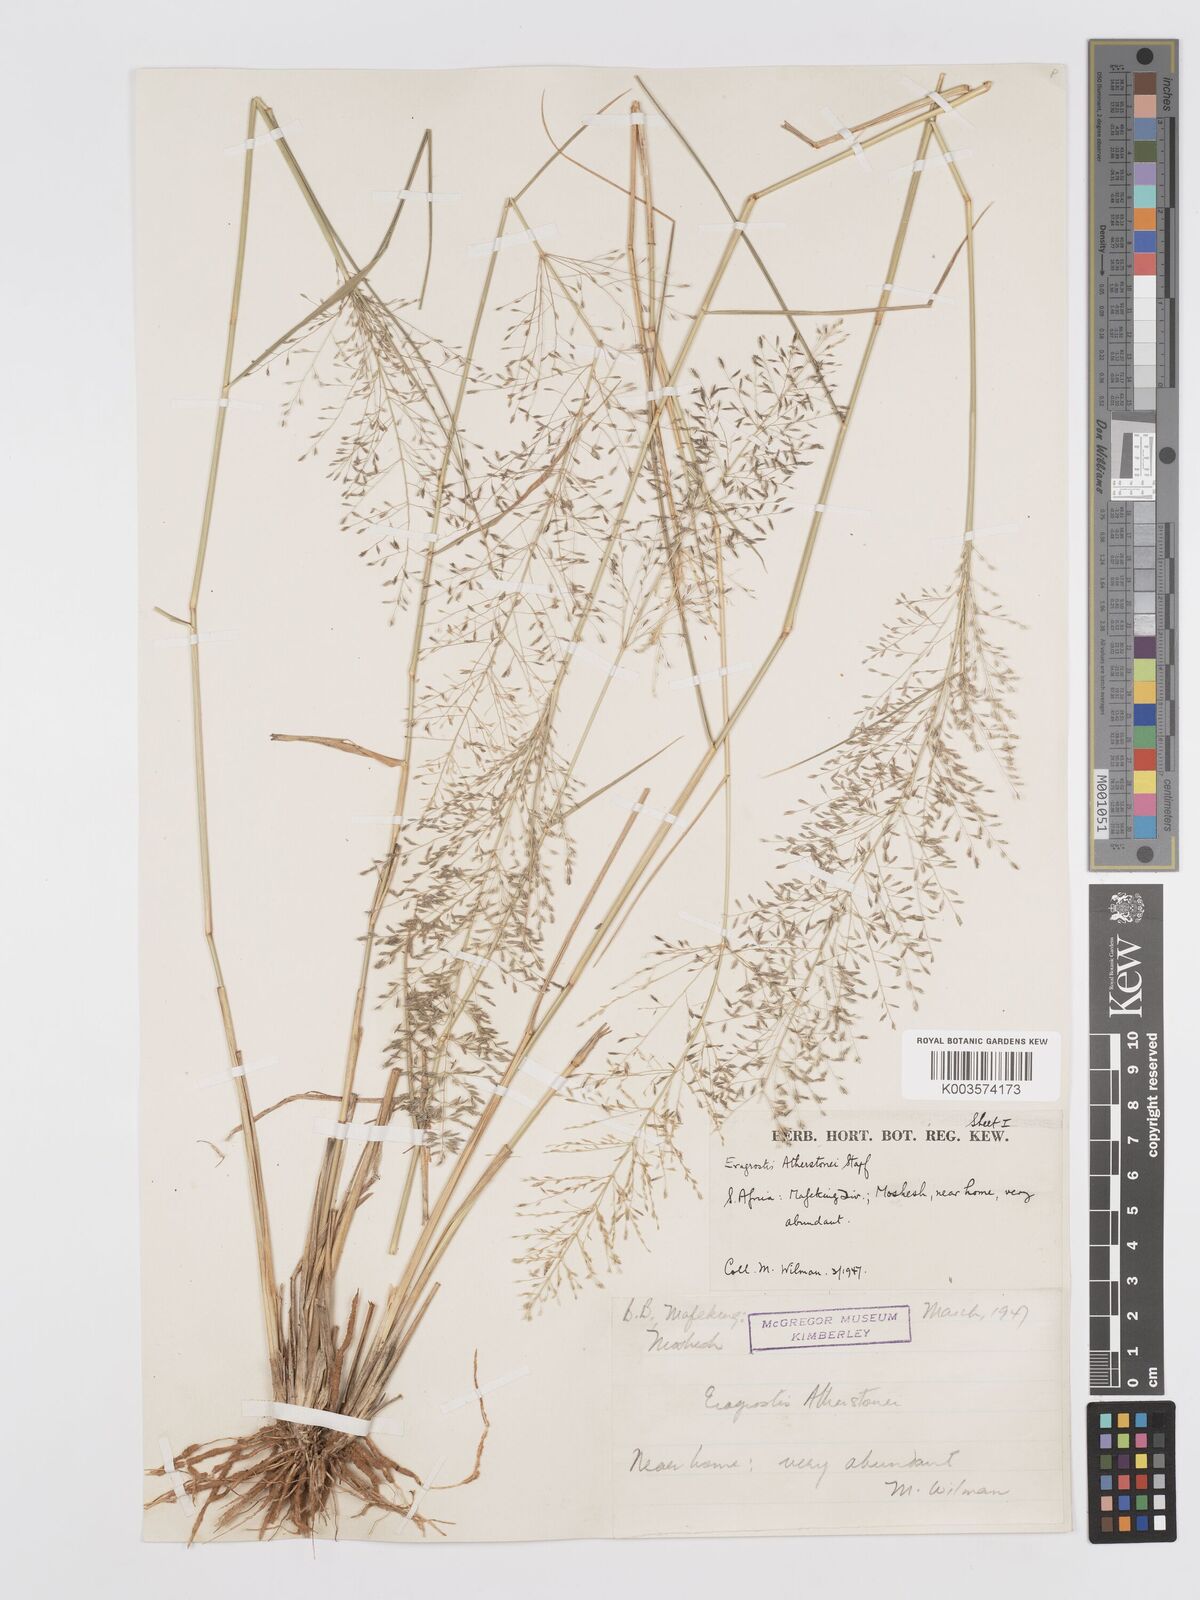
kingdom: Plantae
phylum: Tracheophyta
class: Liliopsida
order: Poales
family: Poaceae
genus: Eragrostis
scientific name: Eragrostis cylindriflora
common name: Cylinderflower lovegrass
